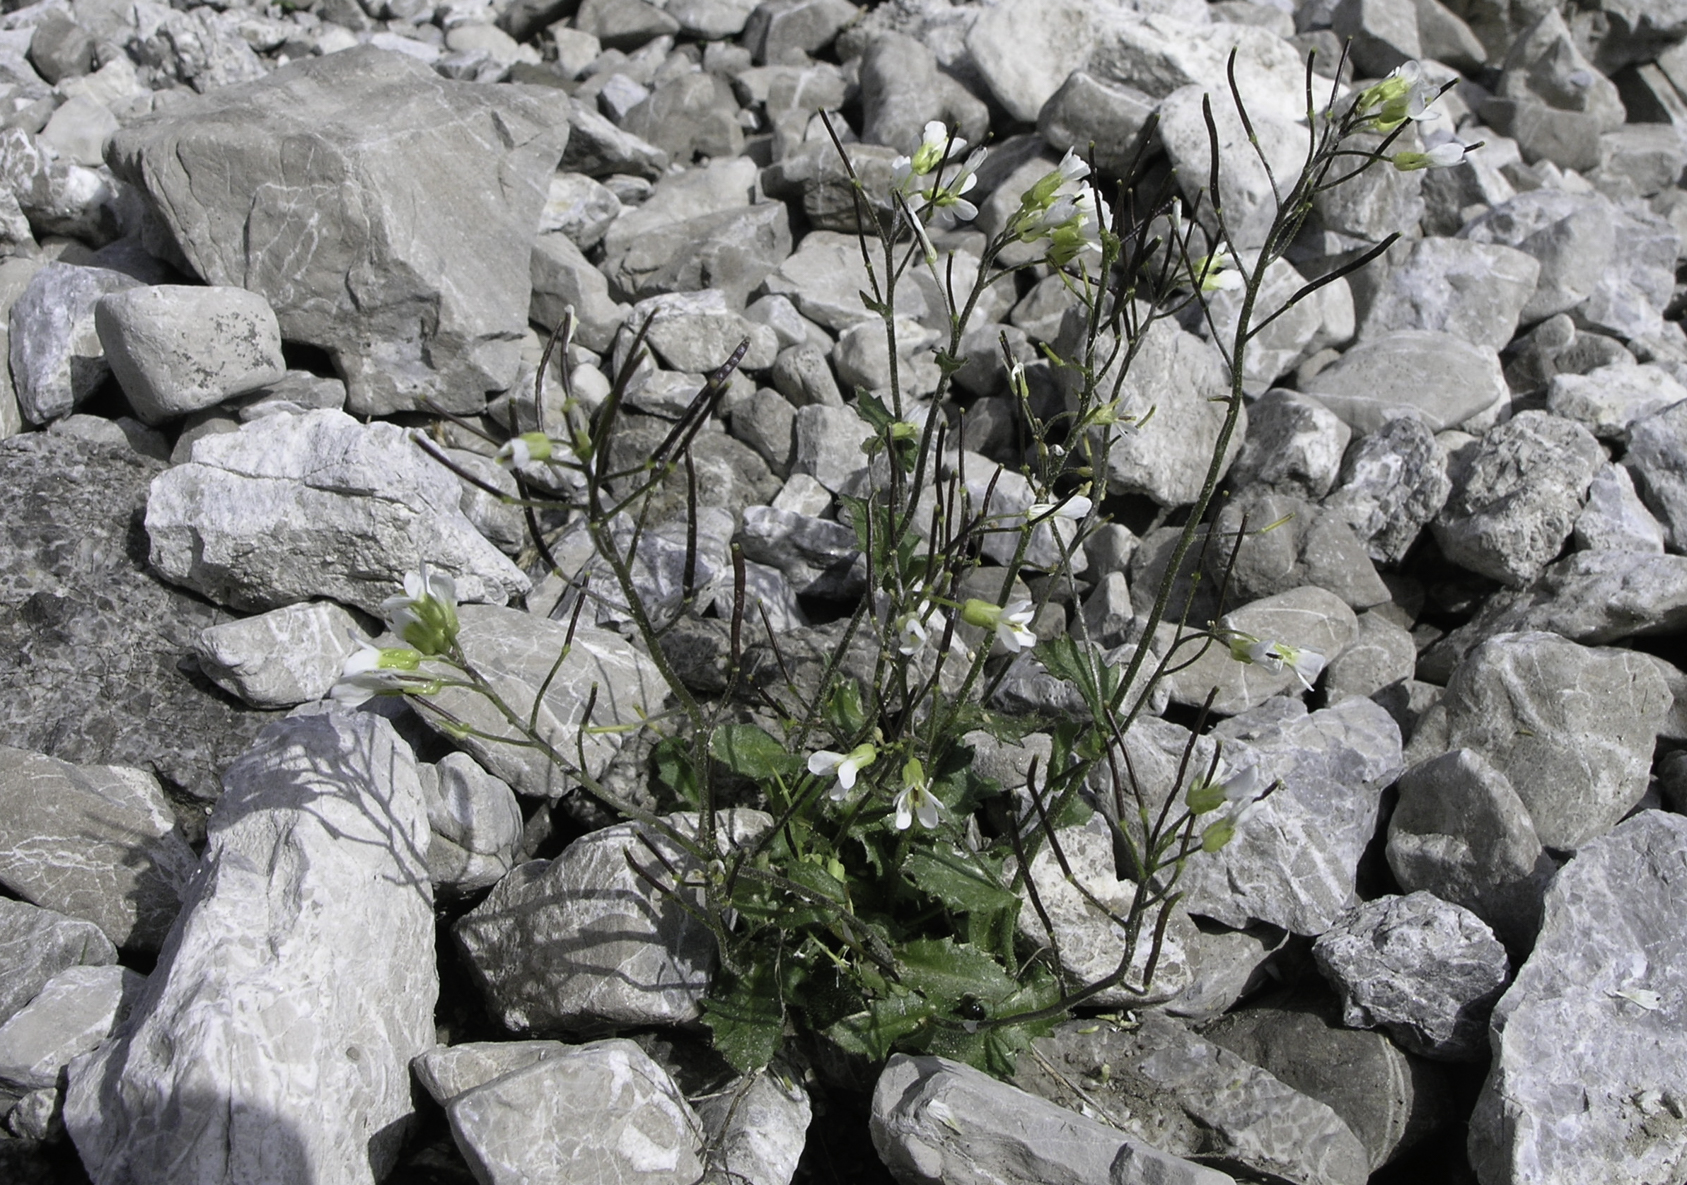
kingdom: Plantae
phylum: Tracheophyta
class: Magnoliopsida
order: Brassicales
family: Brassicaceae
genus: Arabis
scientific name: Arabis alpina
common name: Alpine rock-cress
